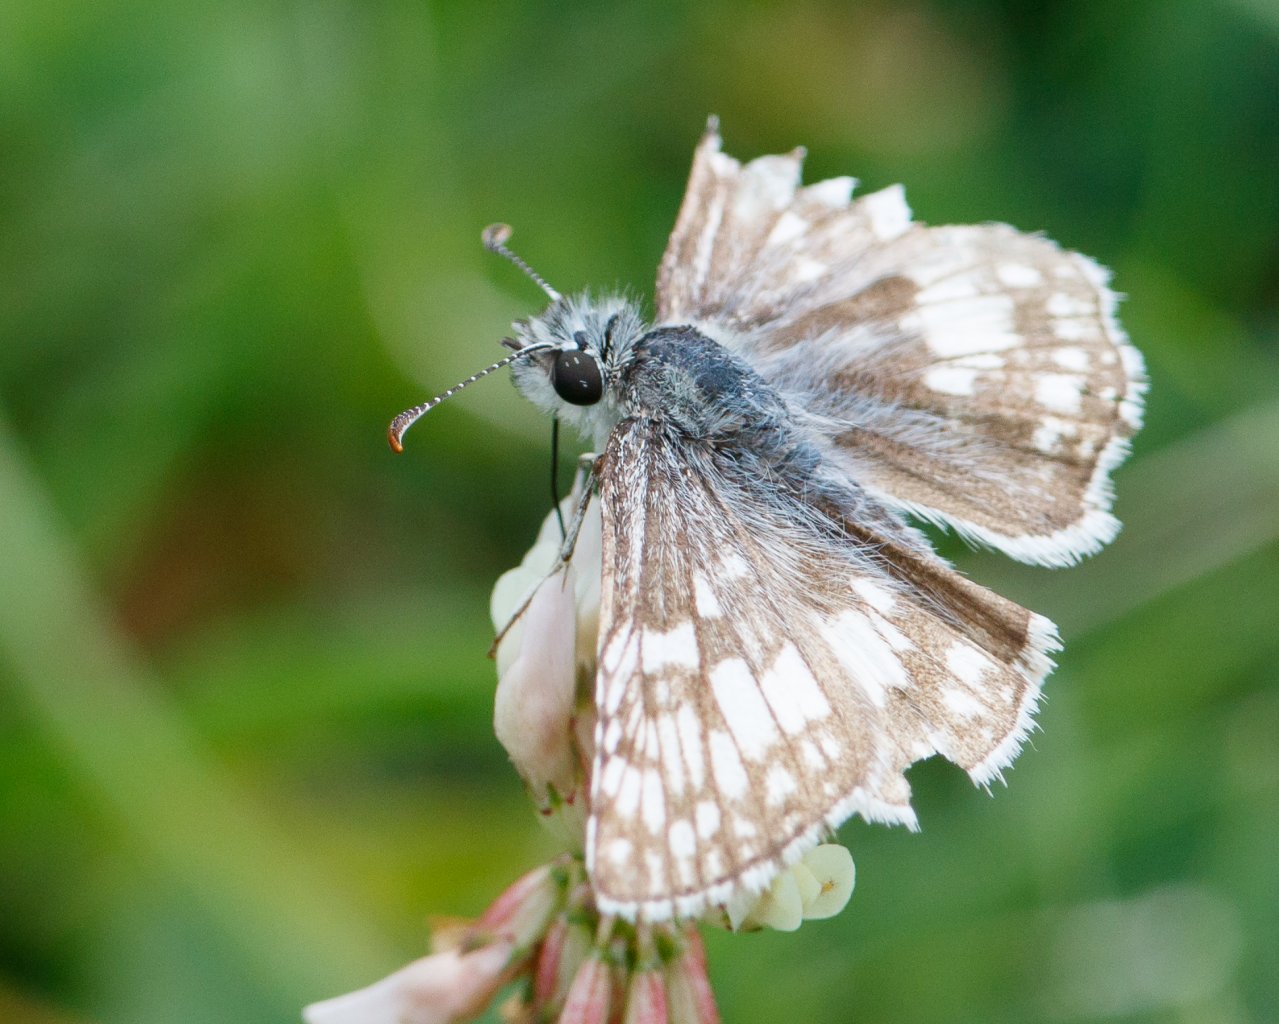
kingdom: Animalia
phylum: Arthropoda
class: Insecta
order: Lepidoptera
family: Hesperiidae
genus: Pyrgus
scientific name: Pyrgus communis
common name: Common Checkered-Skipper
